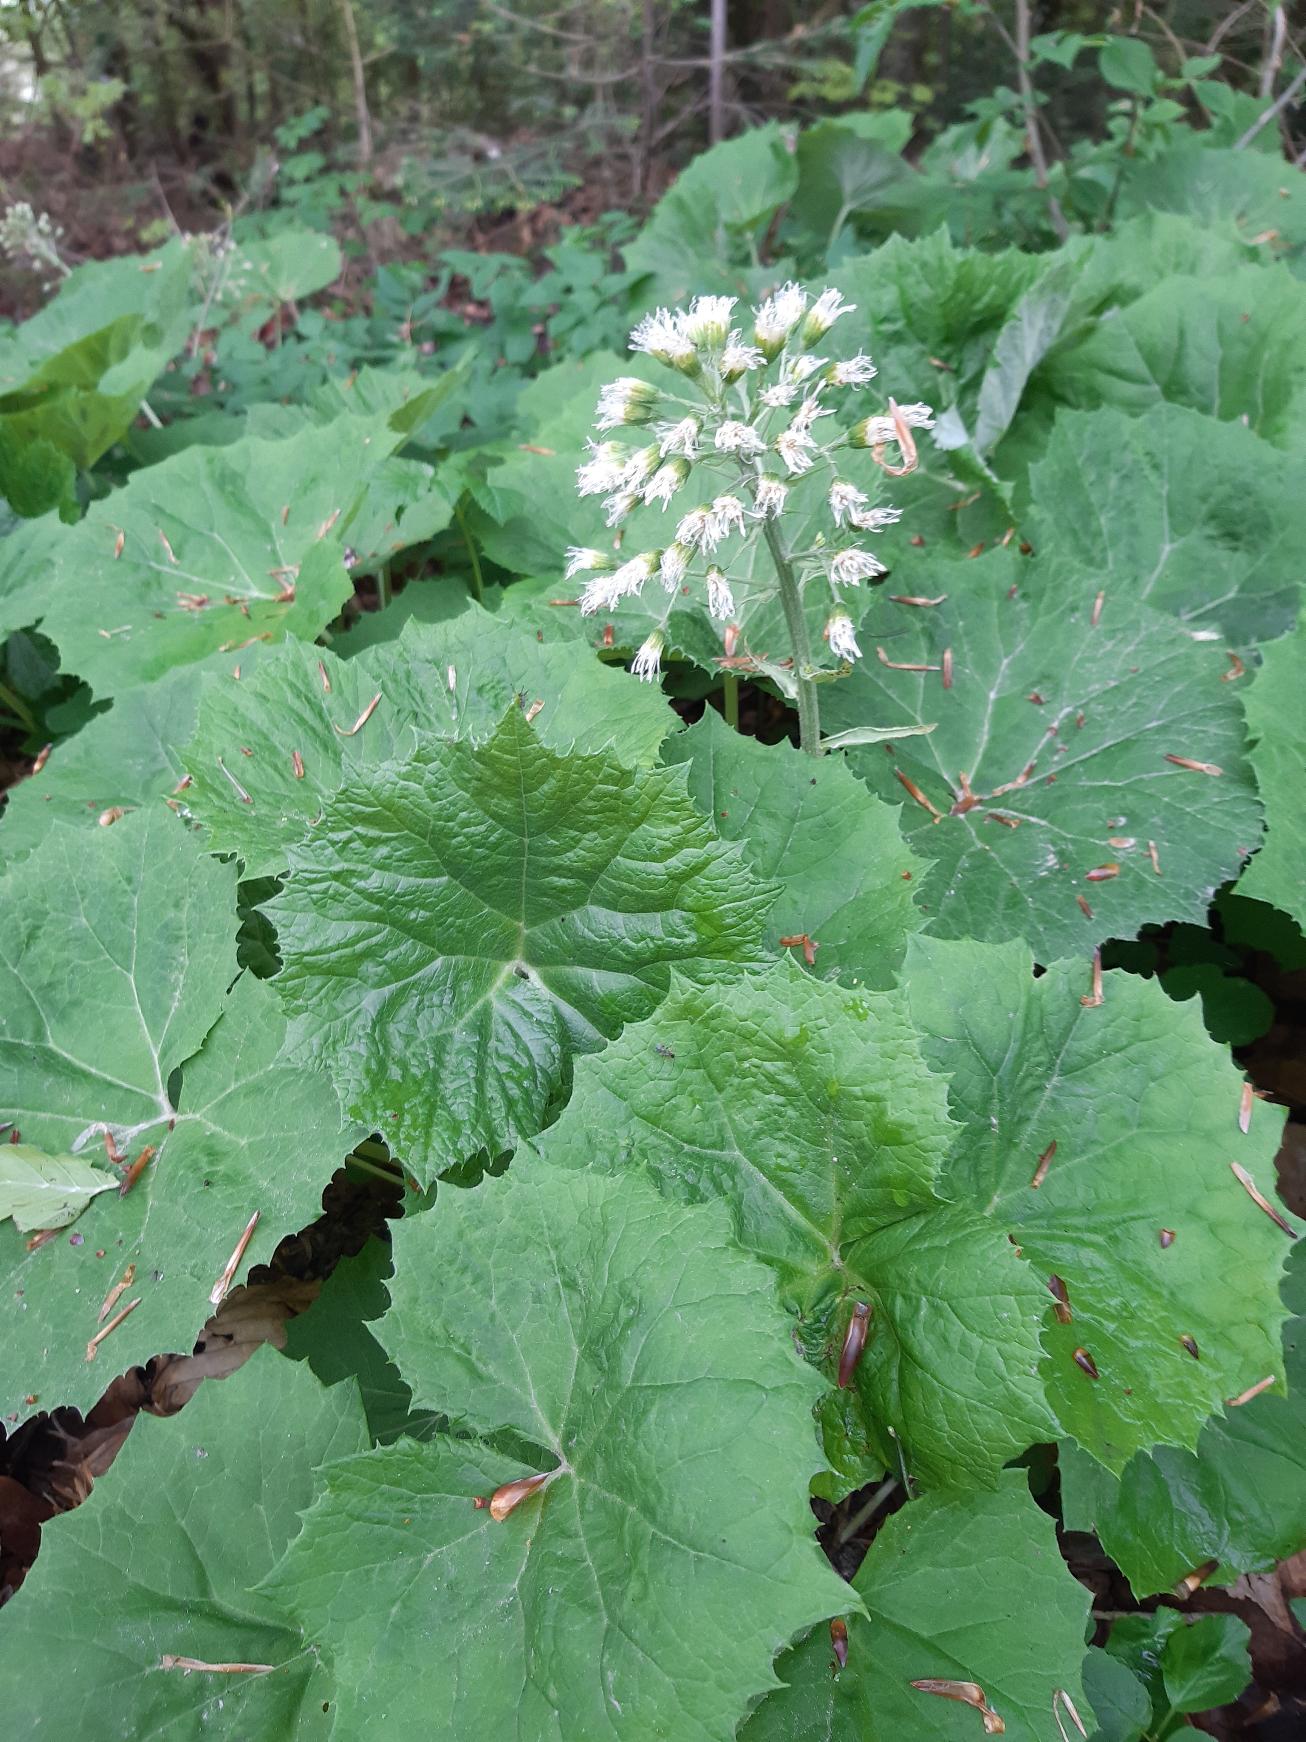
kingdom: Plantae
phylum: Tracheophyta
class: Magnoliopsida
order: Asterales
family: Asteraceae
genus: Petasites
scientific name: Petasites albus
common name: Hvid hestehov
